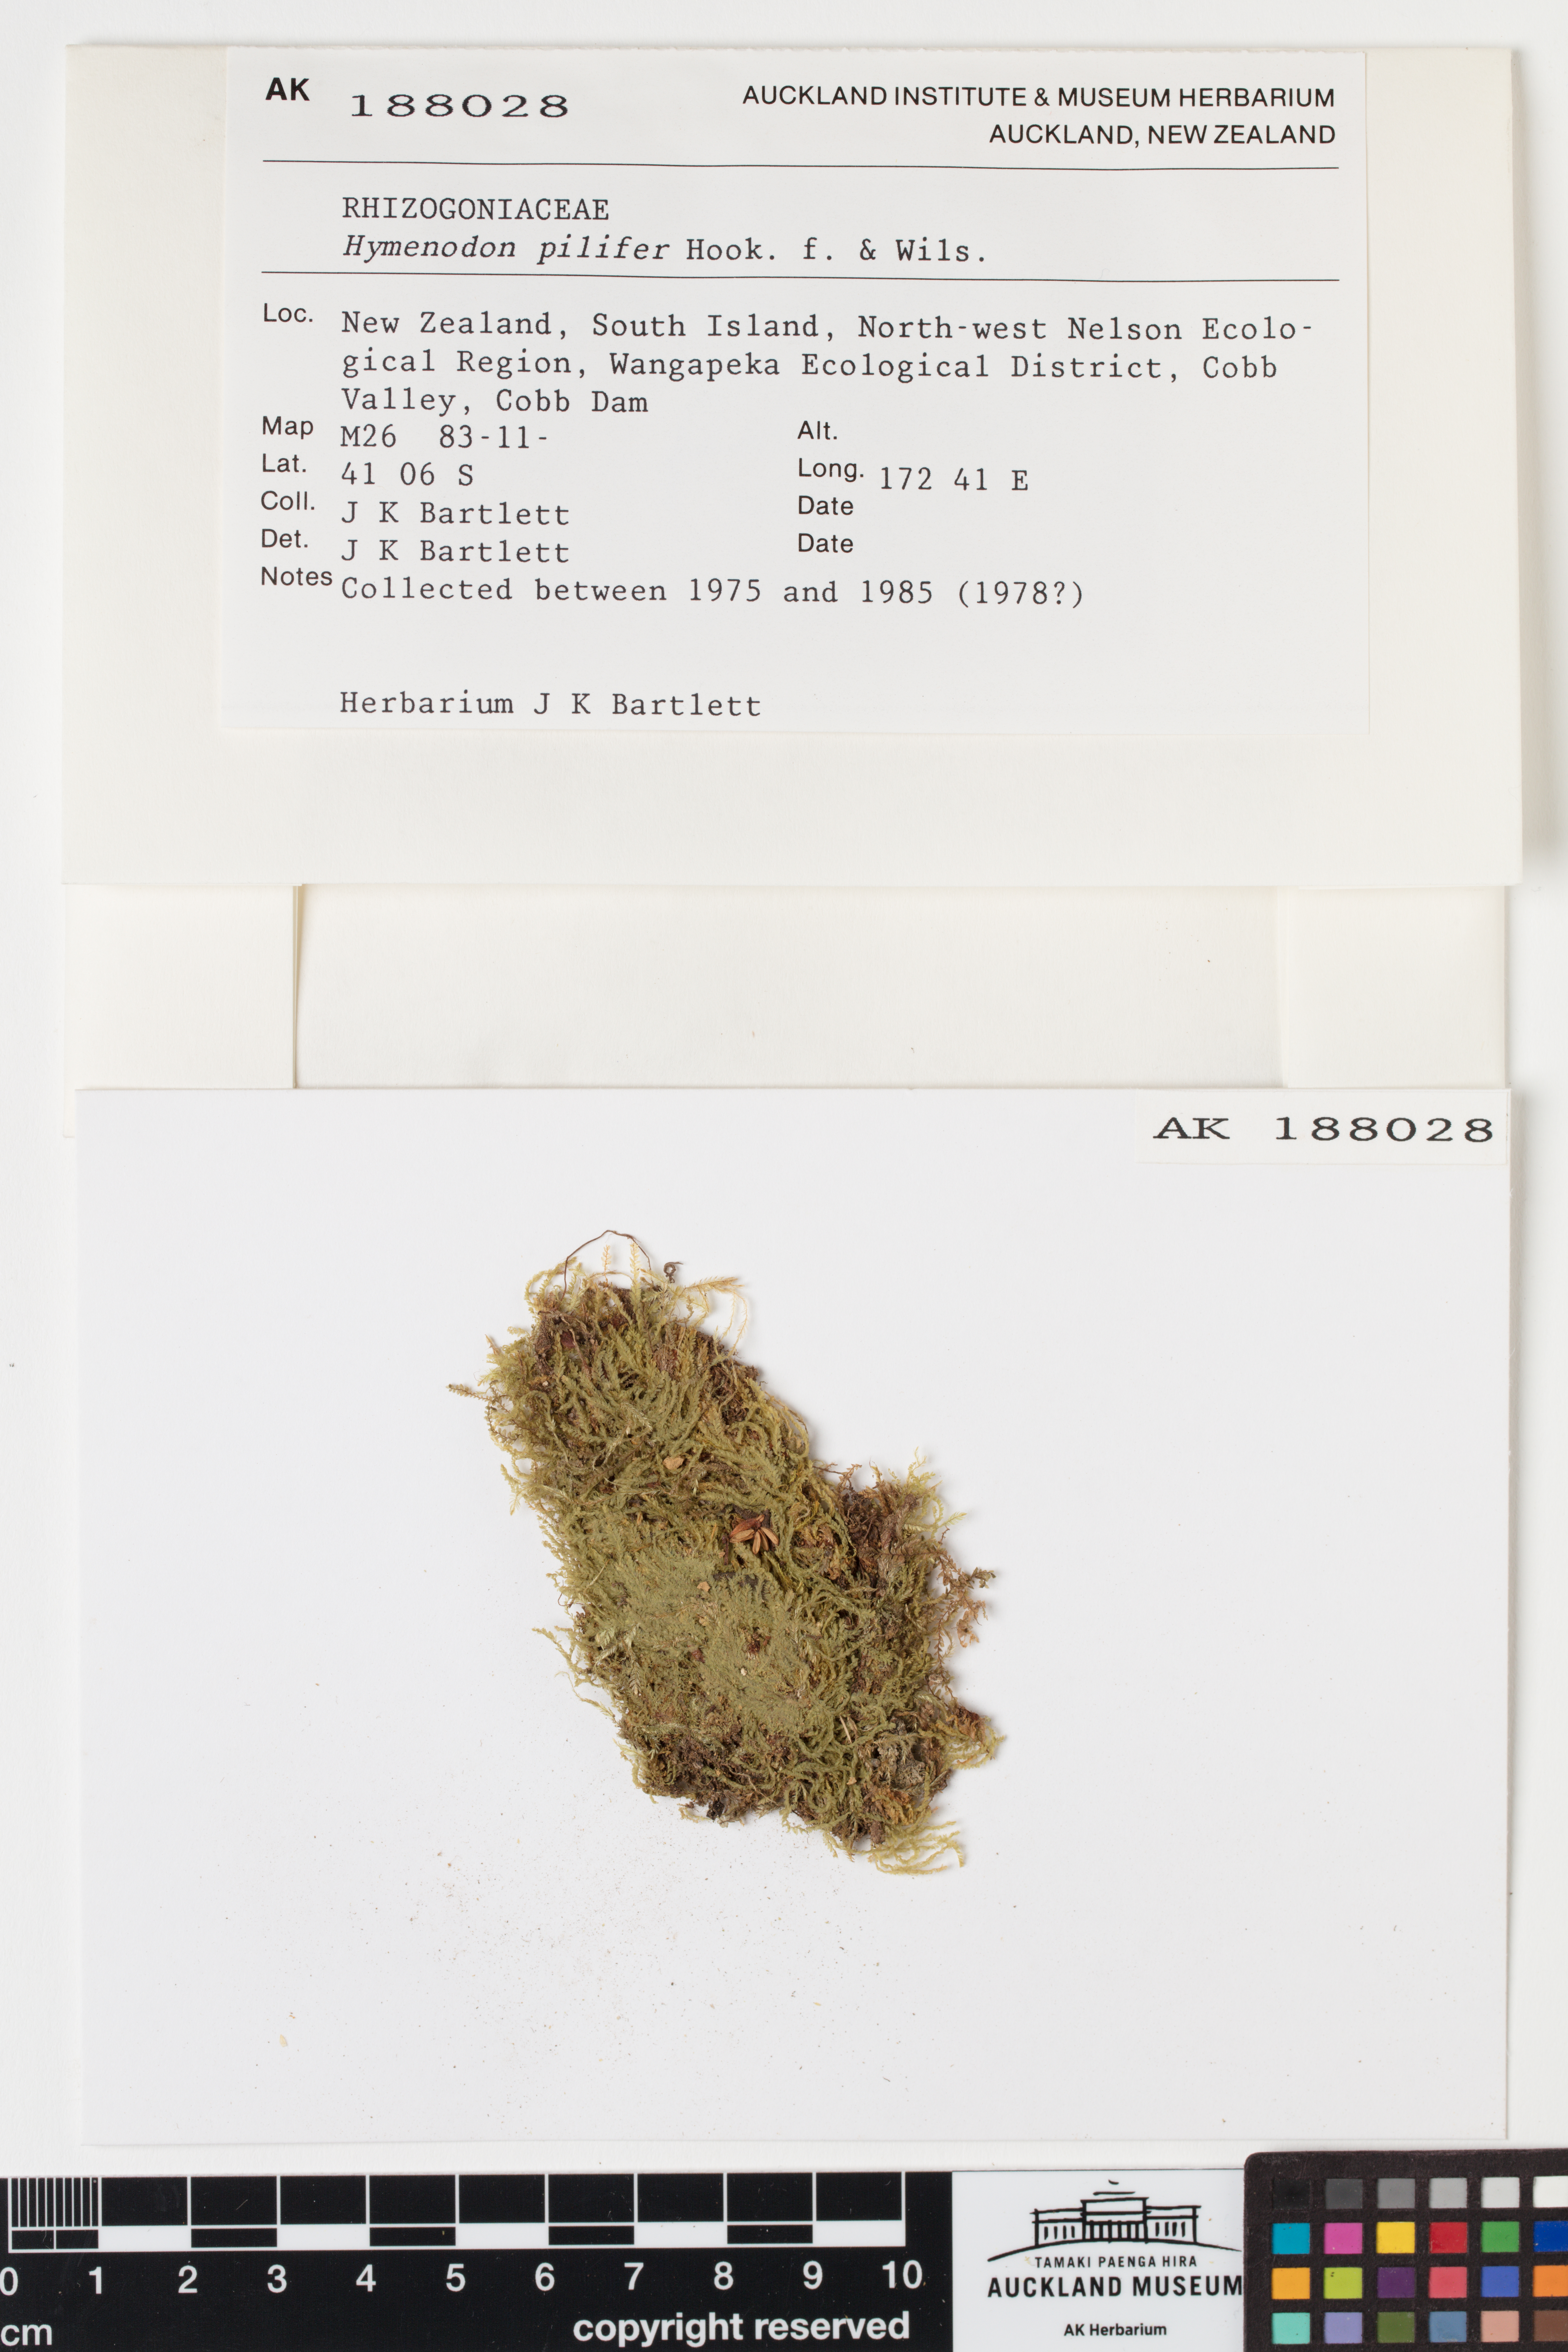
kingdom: Plantae
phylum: Bryophyta
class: Bryopsida
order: Orthodontiales
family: Orthodontiaceae
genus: Hymenodon
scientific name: Hymenodon pilifer
